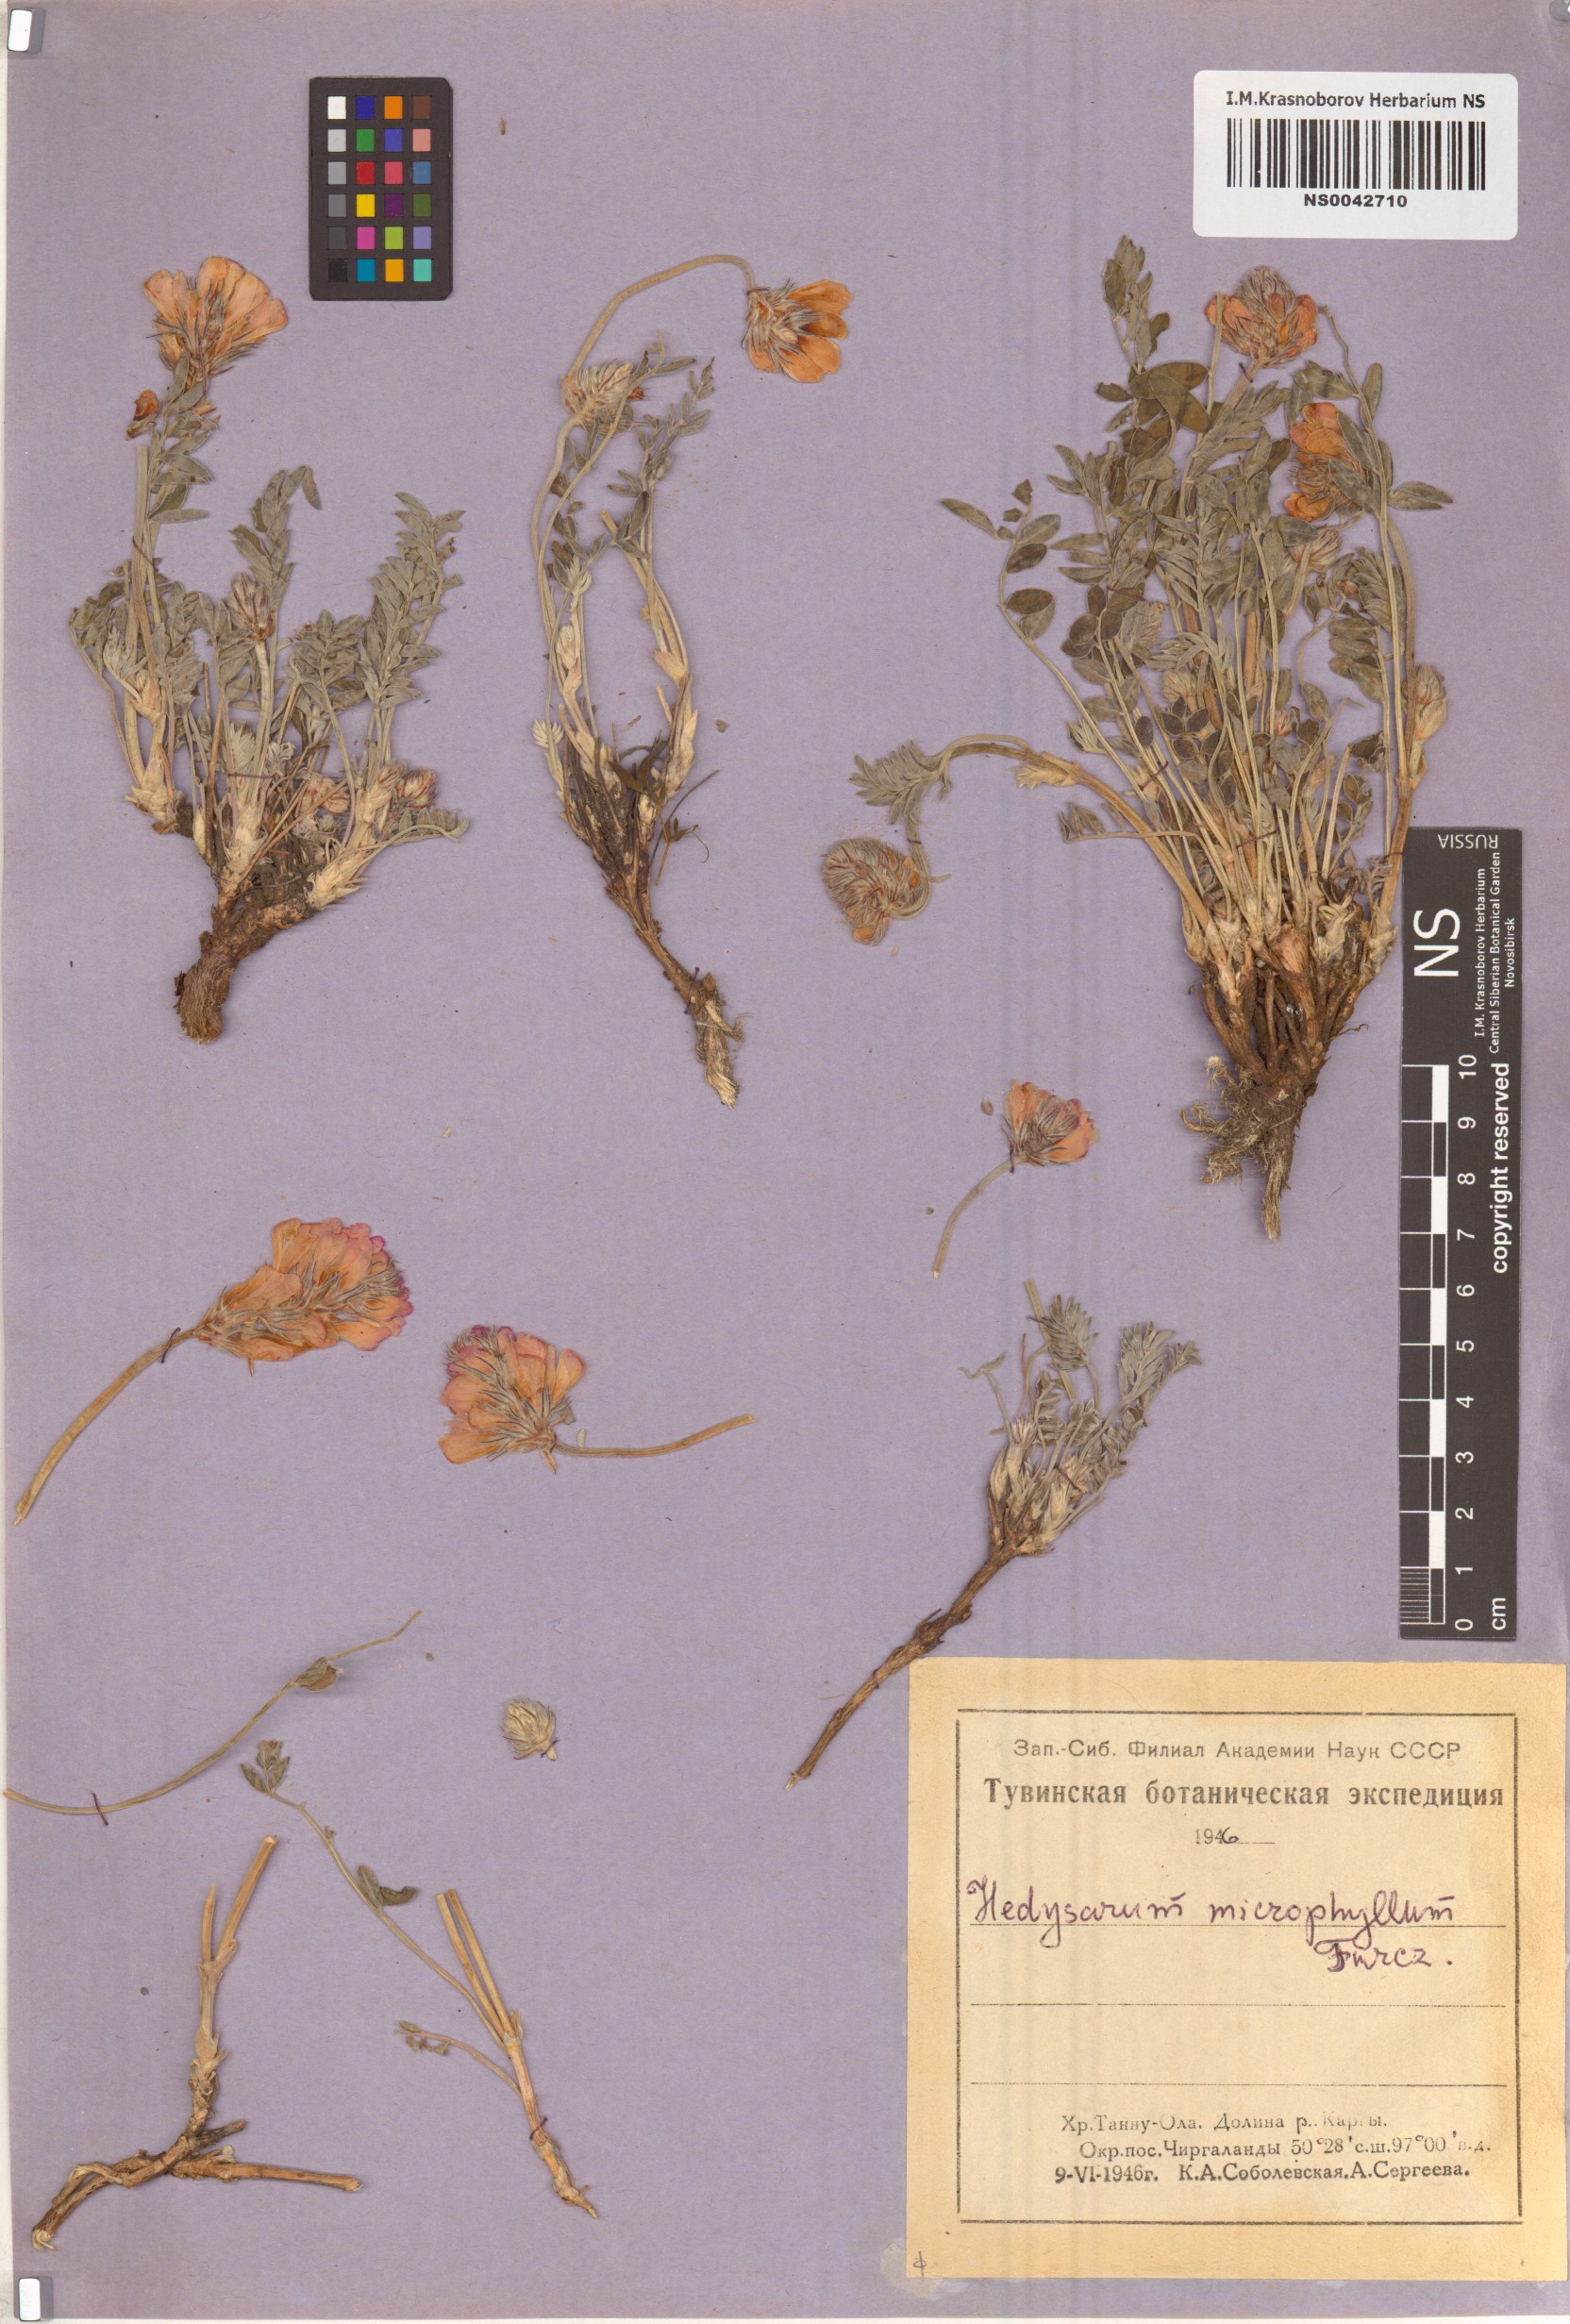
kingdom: Plantae
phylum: Tracheophyta
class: Magnoliopsida
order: Fabales
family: Fabaceae
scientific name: Fabaceae
